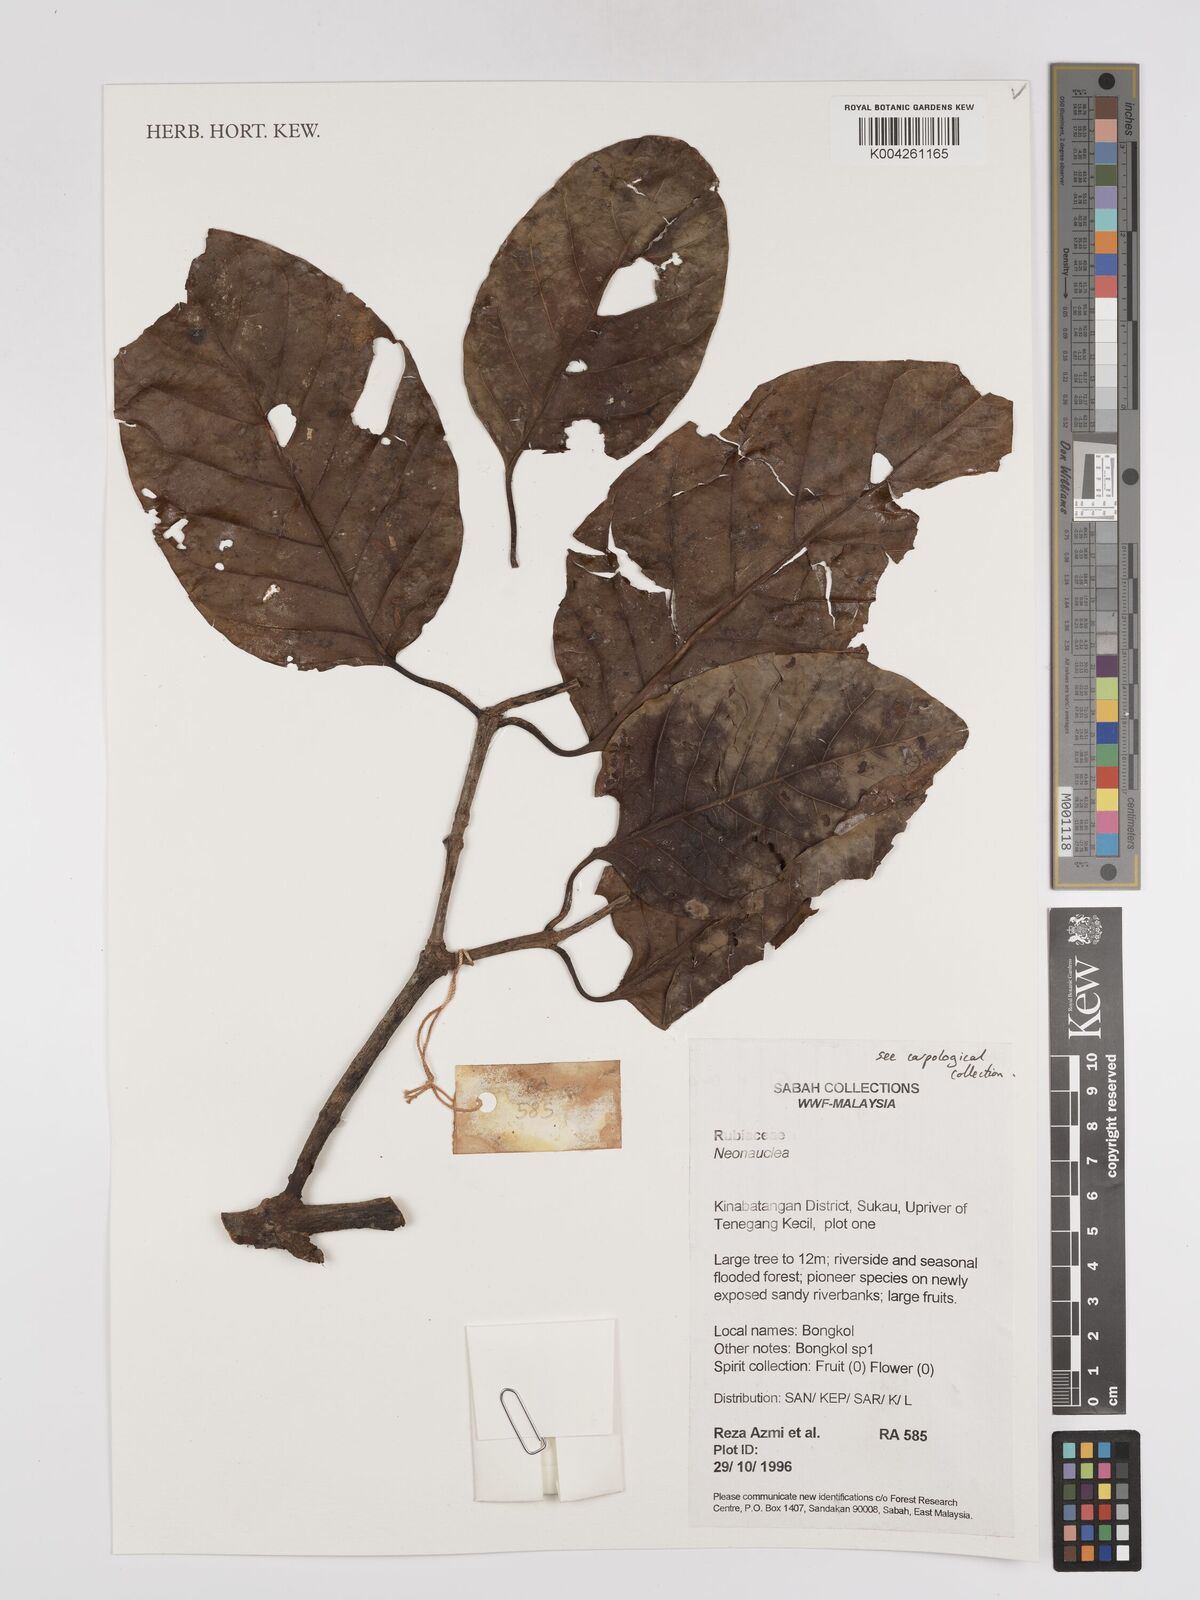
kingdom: Plantae
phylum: Tracheophyta
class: Magnoliopsida
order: Gentianales
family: Rubiaceae
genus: Neonauclea
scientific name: Neonauclea
